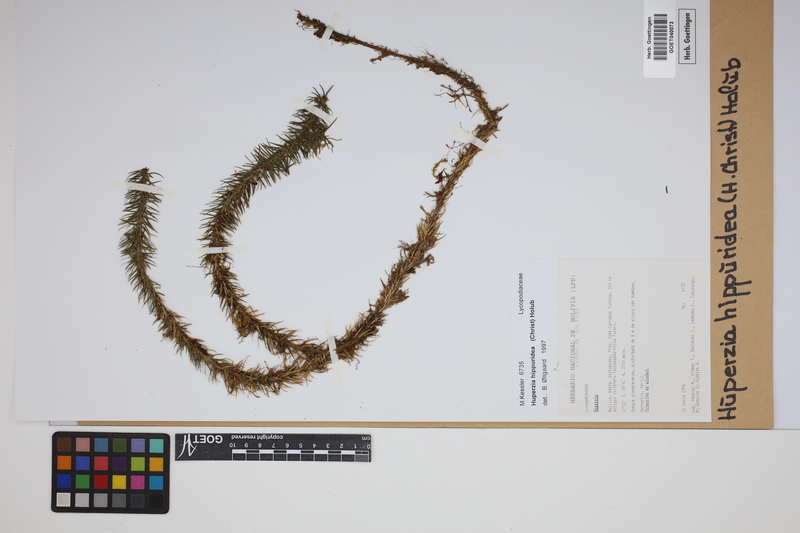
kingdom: Plantae
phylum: Tracheophyta
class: Lycopodiopsida
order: Lycopodiales
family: Lycopodiaceae
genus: Phlegmariurus
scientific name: Phlegmariurus hippurideus
